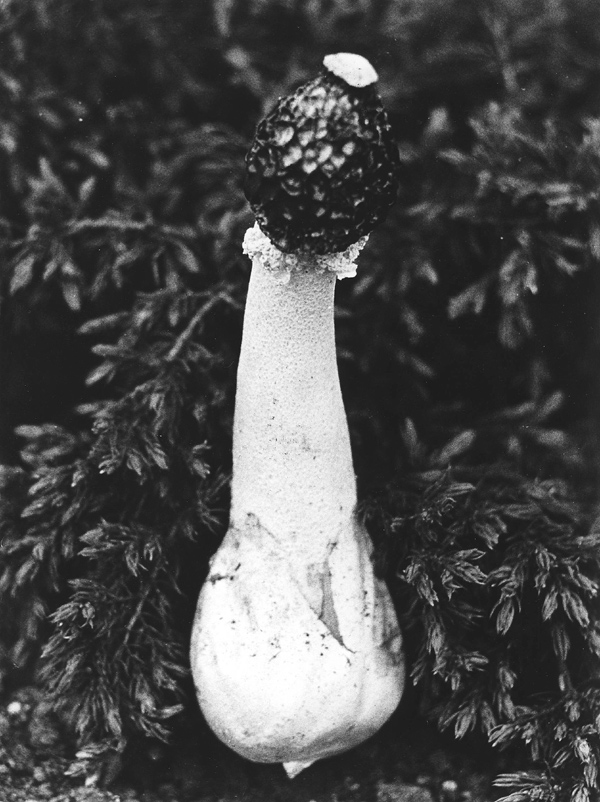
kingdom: Fungi
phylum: Basidiomycota
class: Agaricomycetes
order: Phallales
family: Phallaceae
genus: Phallus
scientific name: Phallus impudicus
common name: Common stinkhorn
